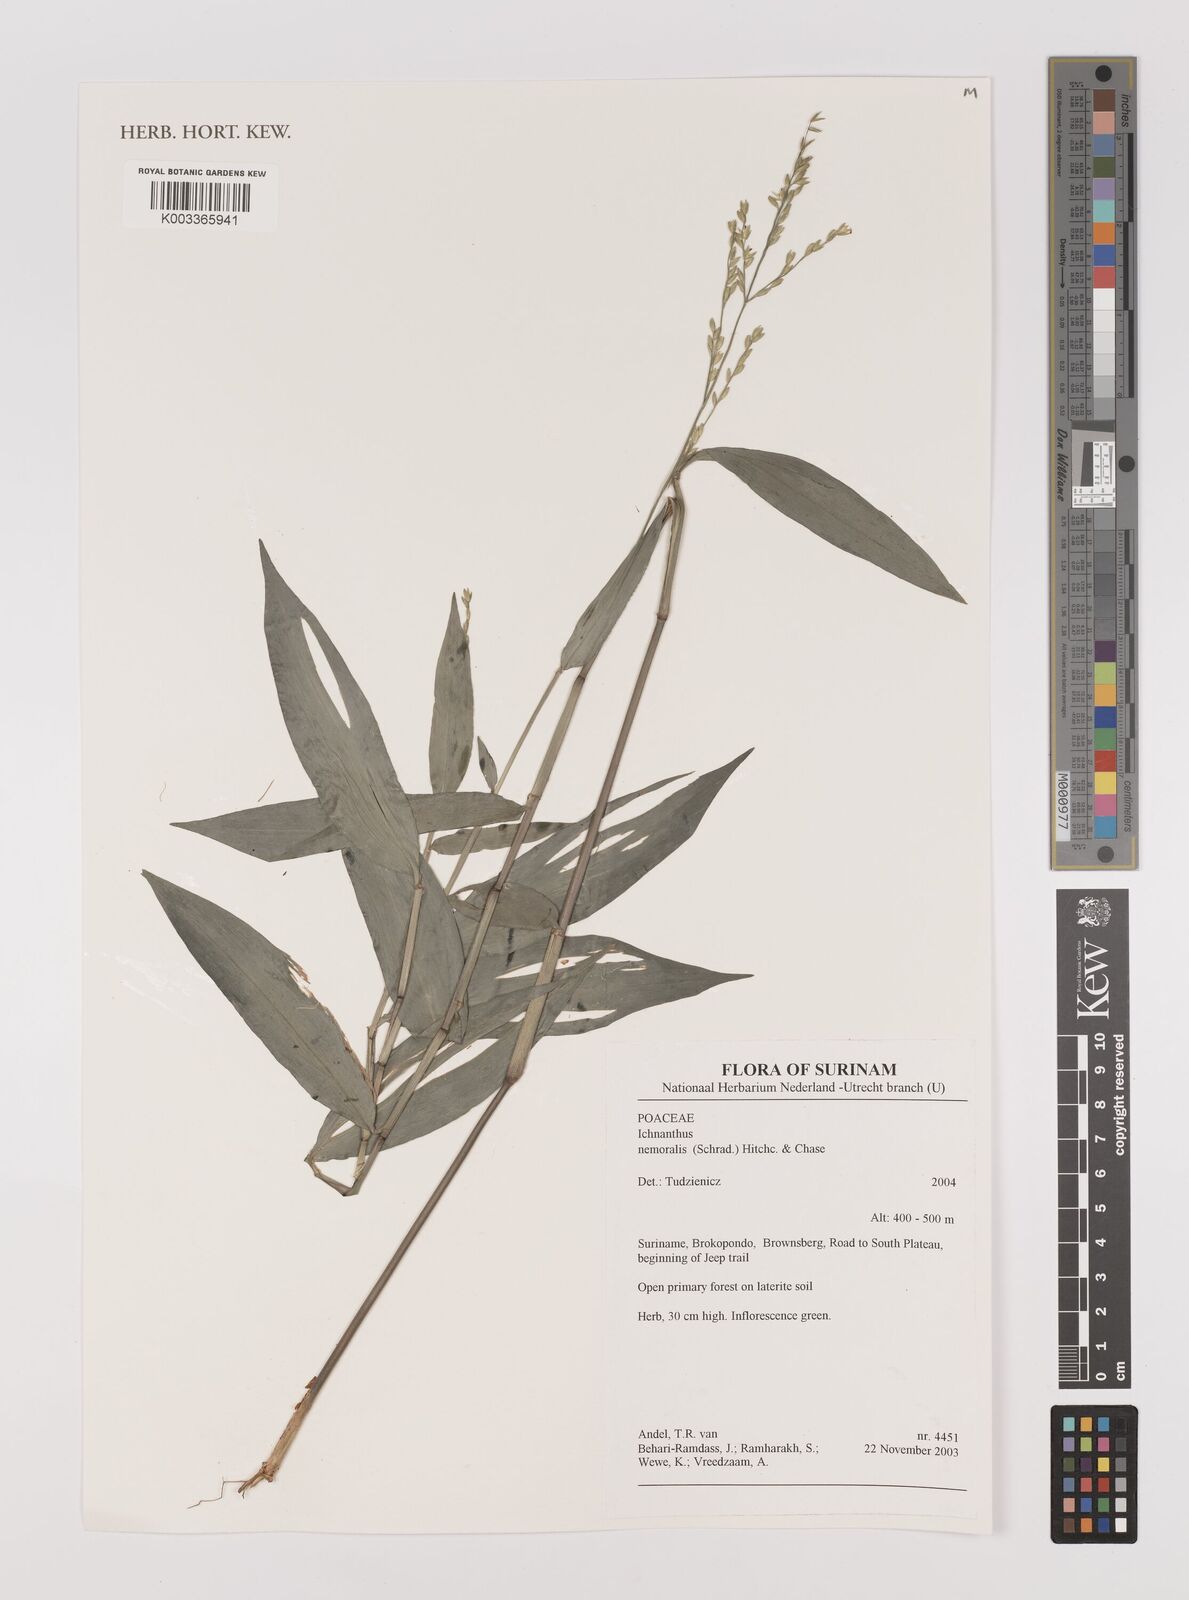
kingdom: Plantae
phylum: Tracheophyta
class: Liliopsida
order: Poales
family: Poaceae
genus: Ichnanthus
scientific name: Ichnanthus nemoralis
